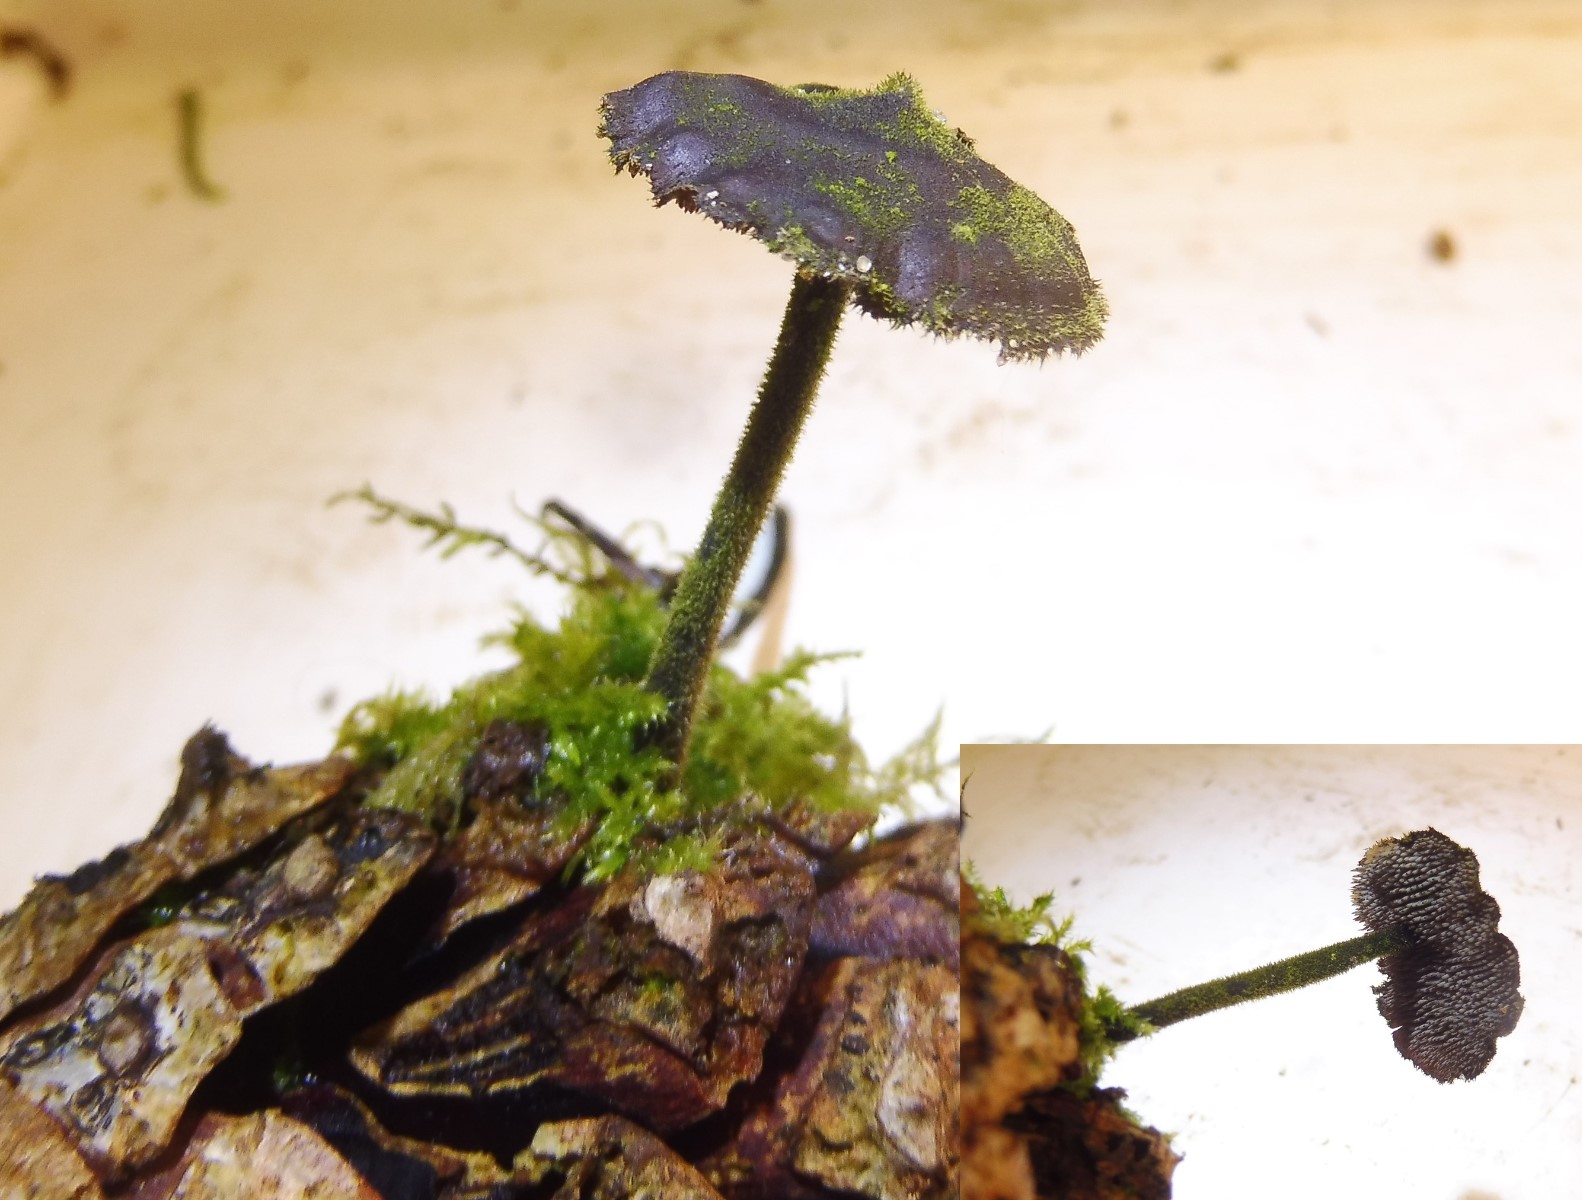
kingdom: Fungi
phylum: Basidiomycota
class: Agaricomycetes
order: Russulales
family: Auriscalpiaceae
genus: Auriscalpium
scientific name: Auriscalpium vulgare
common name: koglepigsvamp
